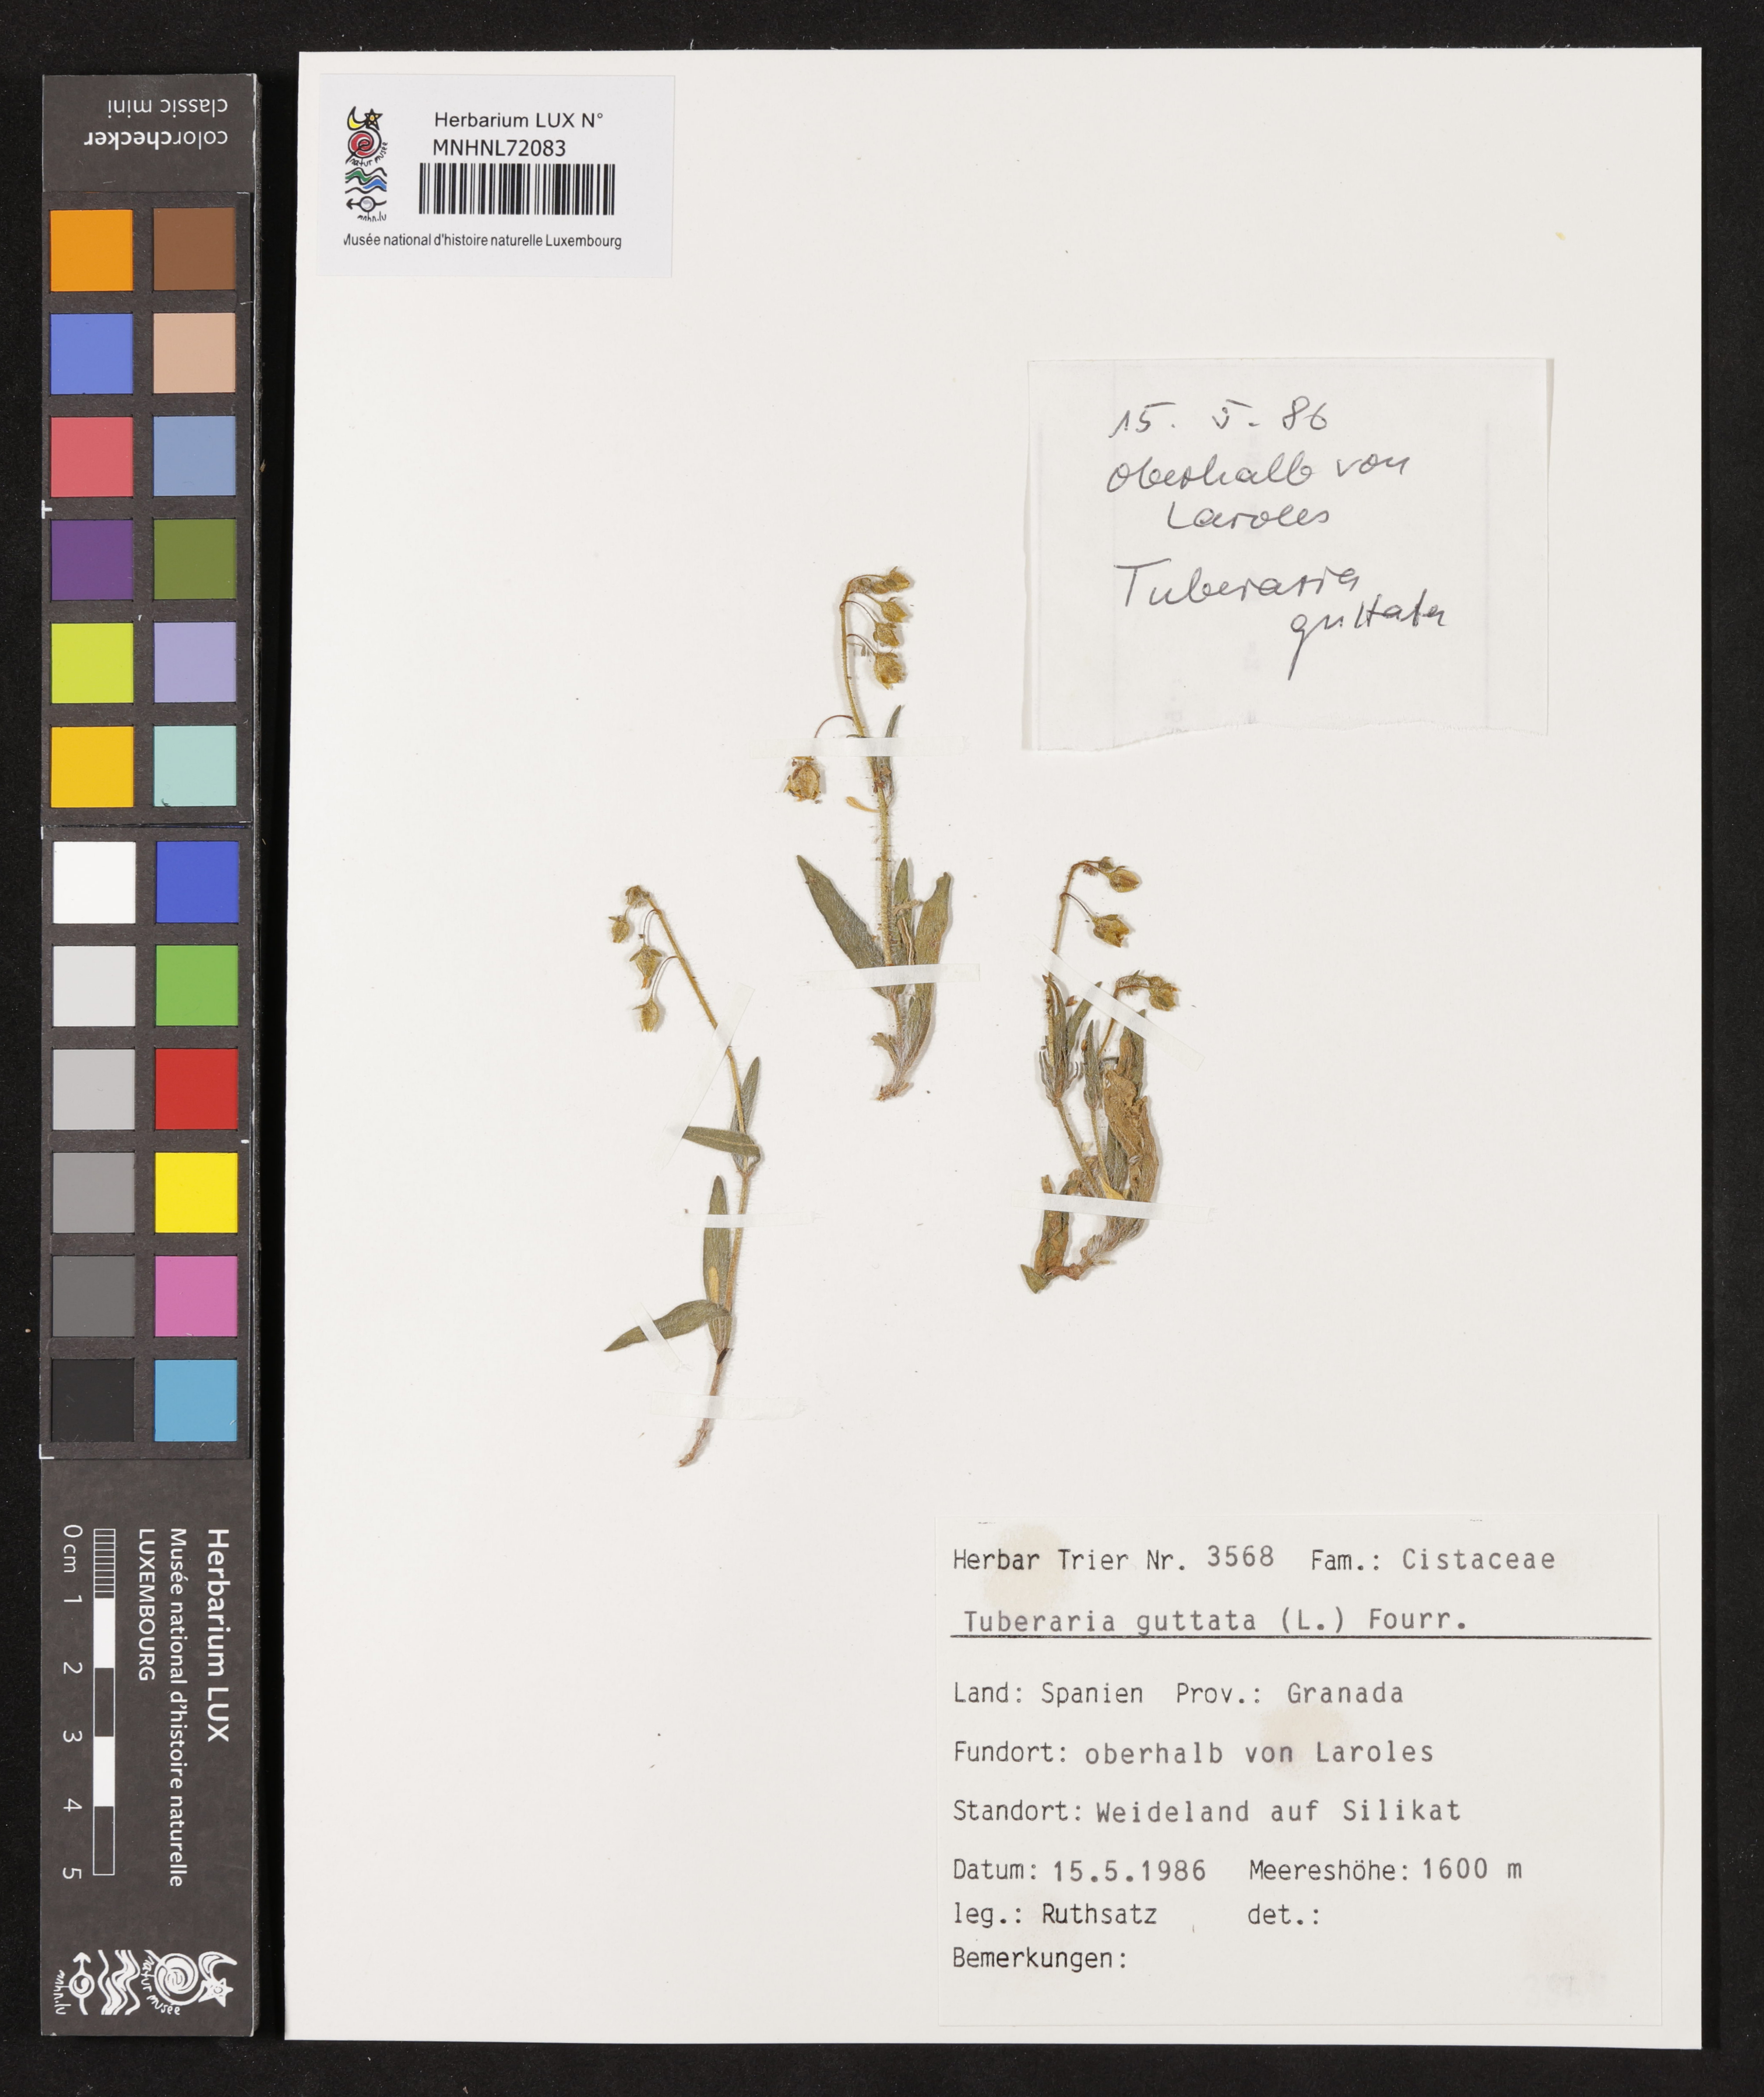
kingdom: Plantae
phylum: Tracheophyta
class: Magnoliopsida
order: Malvales
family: Cistaceae
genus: Tuberaria
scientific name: Tuberaria guttata
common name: Spotted rock-rose
